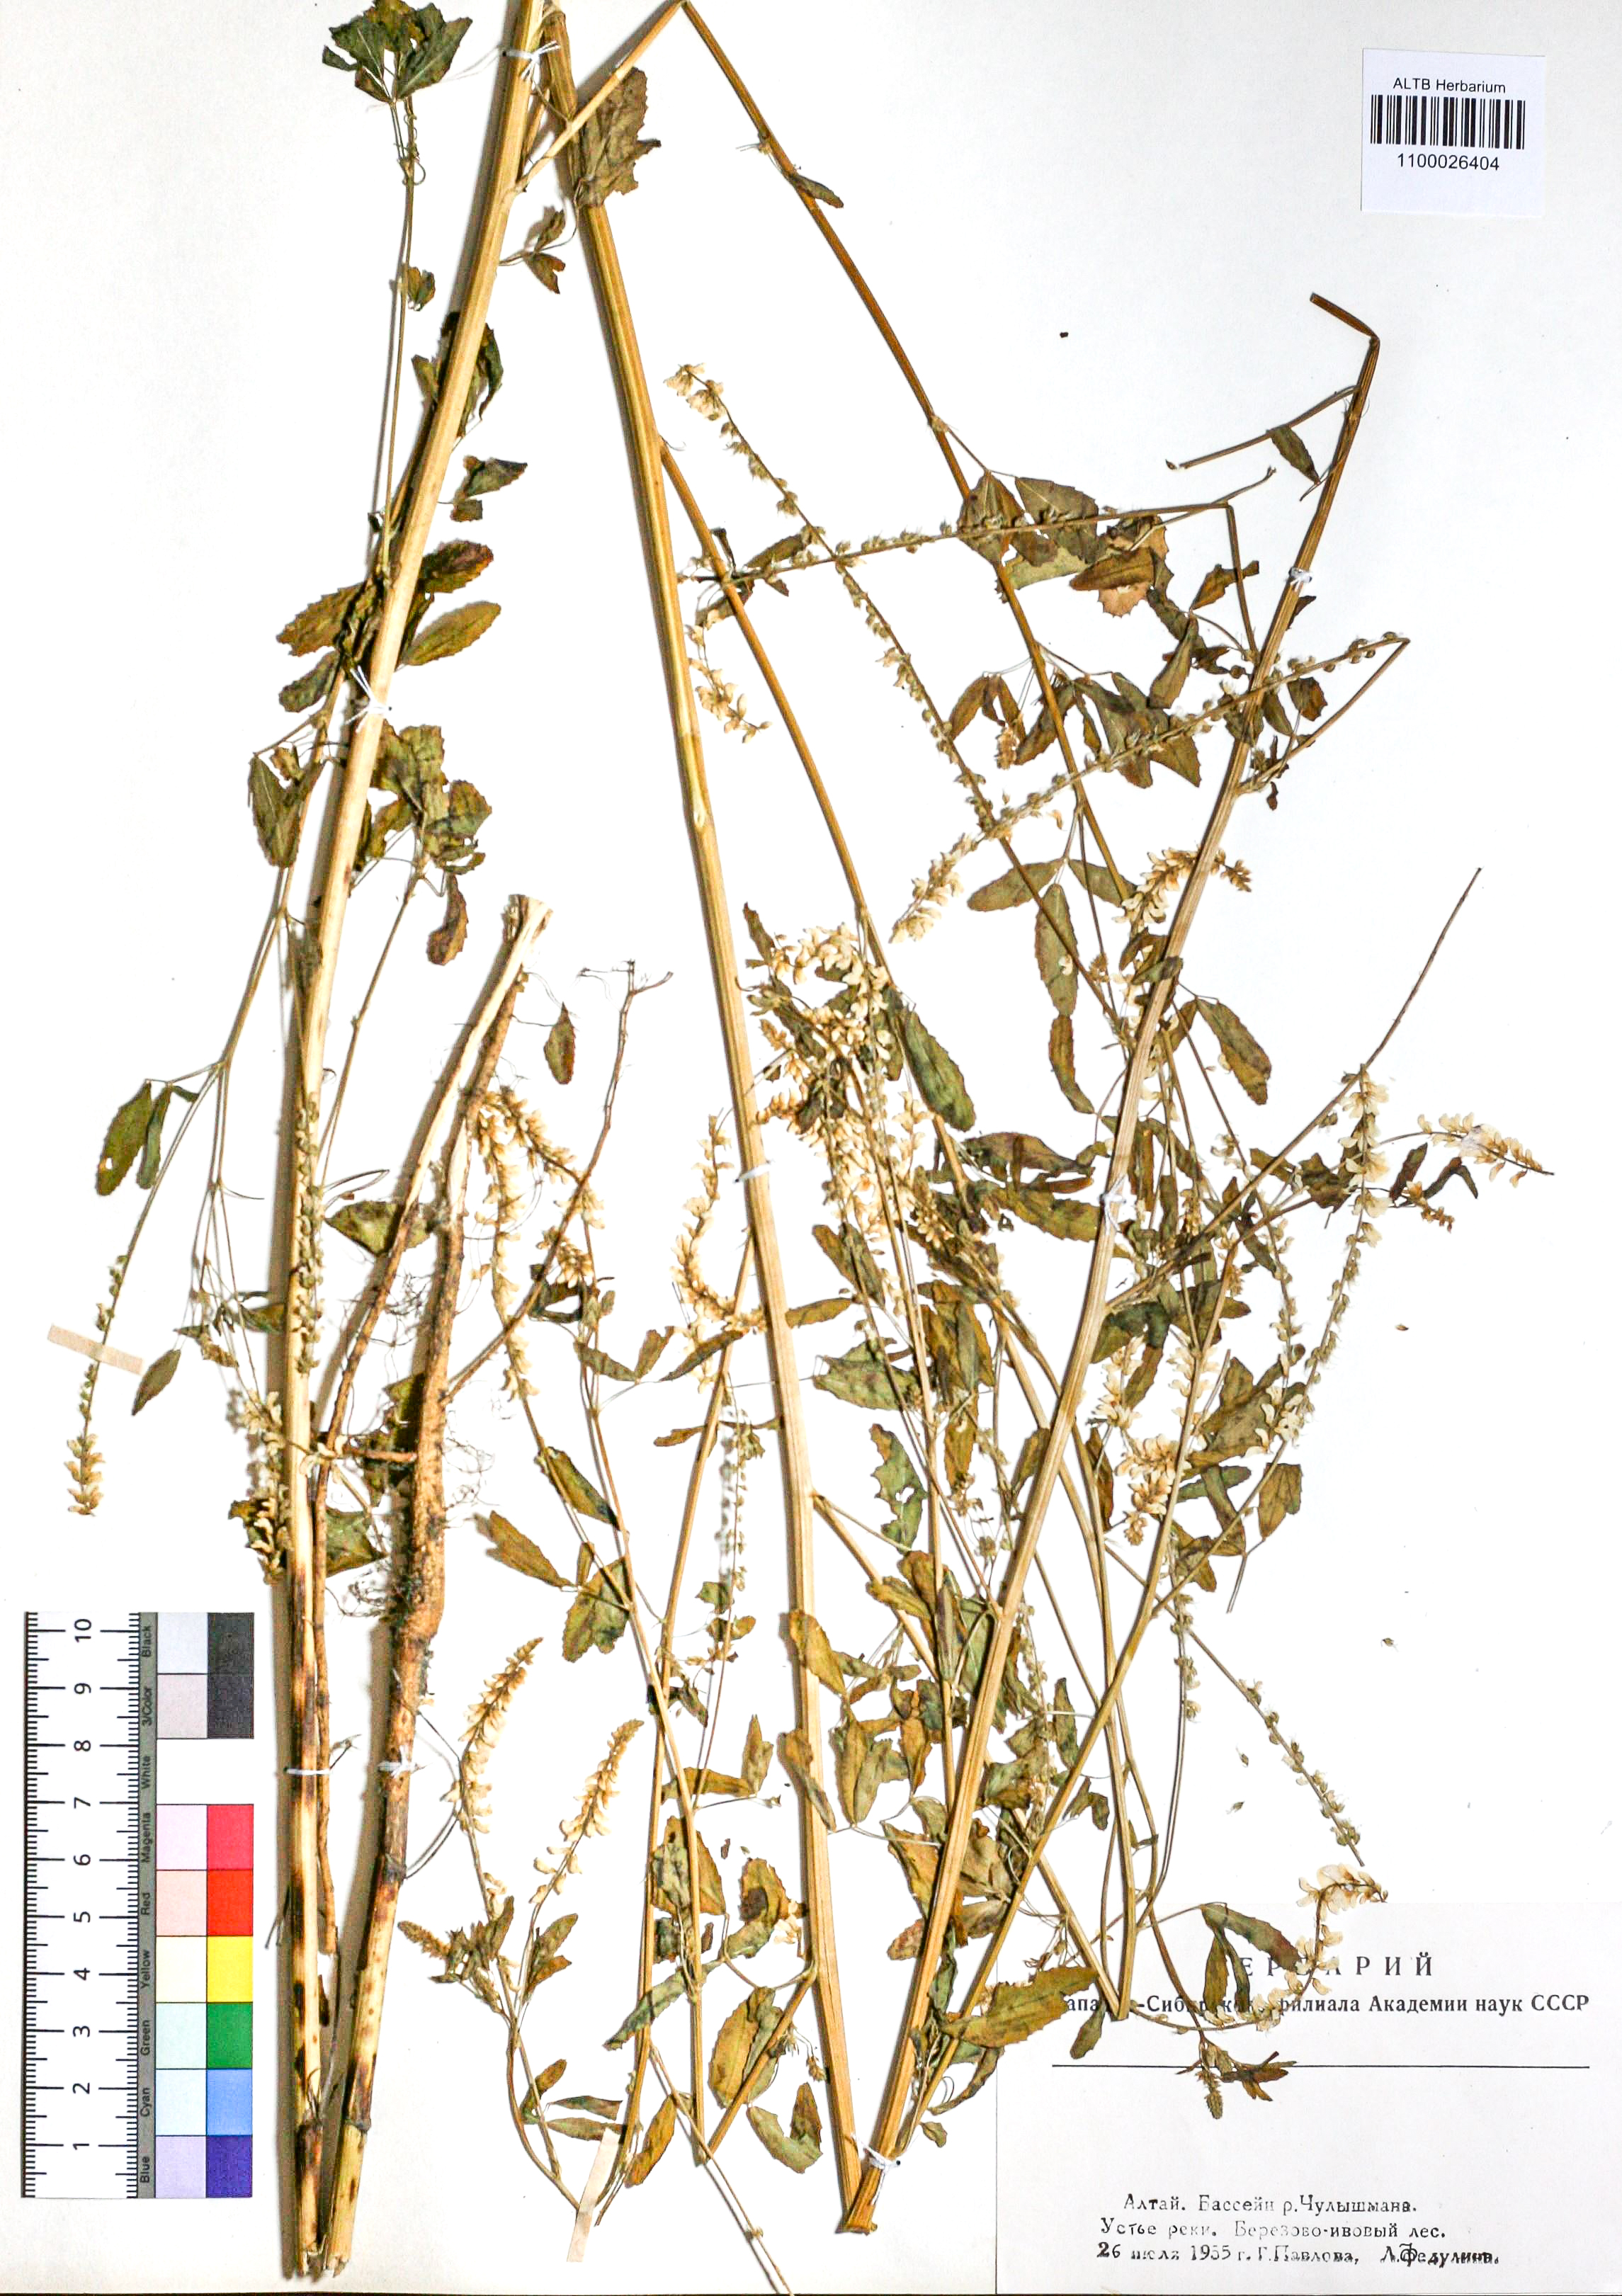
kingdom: Plantae
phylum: Tracheophyta
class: Magnoliopsida
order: Fabales
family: Fabaceae
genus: Melilotus
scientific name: Melilotus albus
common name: White melilot
